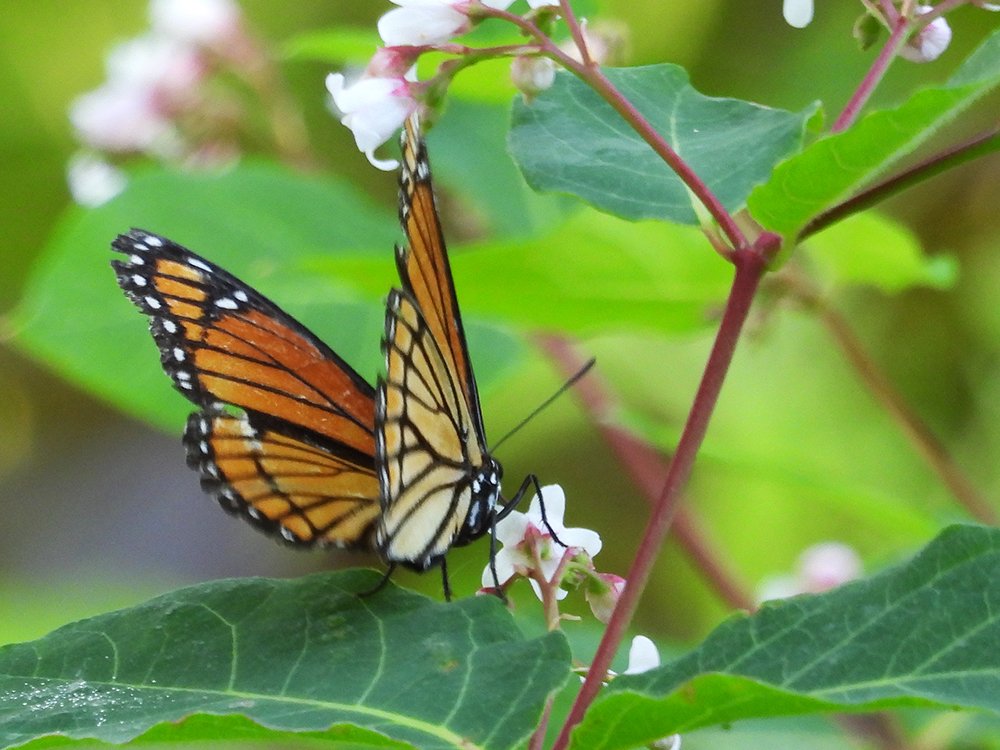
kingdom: Animalia
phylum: Arthropoda
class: Insecta
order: Lepidoptera
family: Nymphalidae
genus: Limenitis
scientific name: Limenitis archippus
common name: Viceroy
